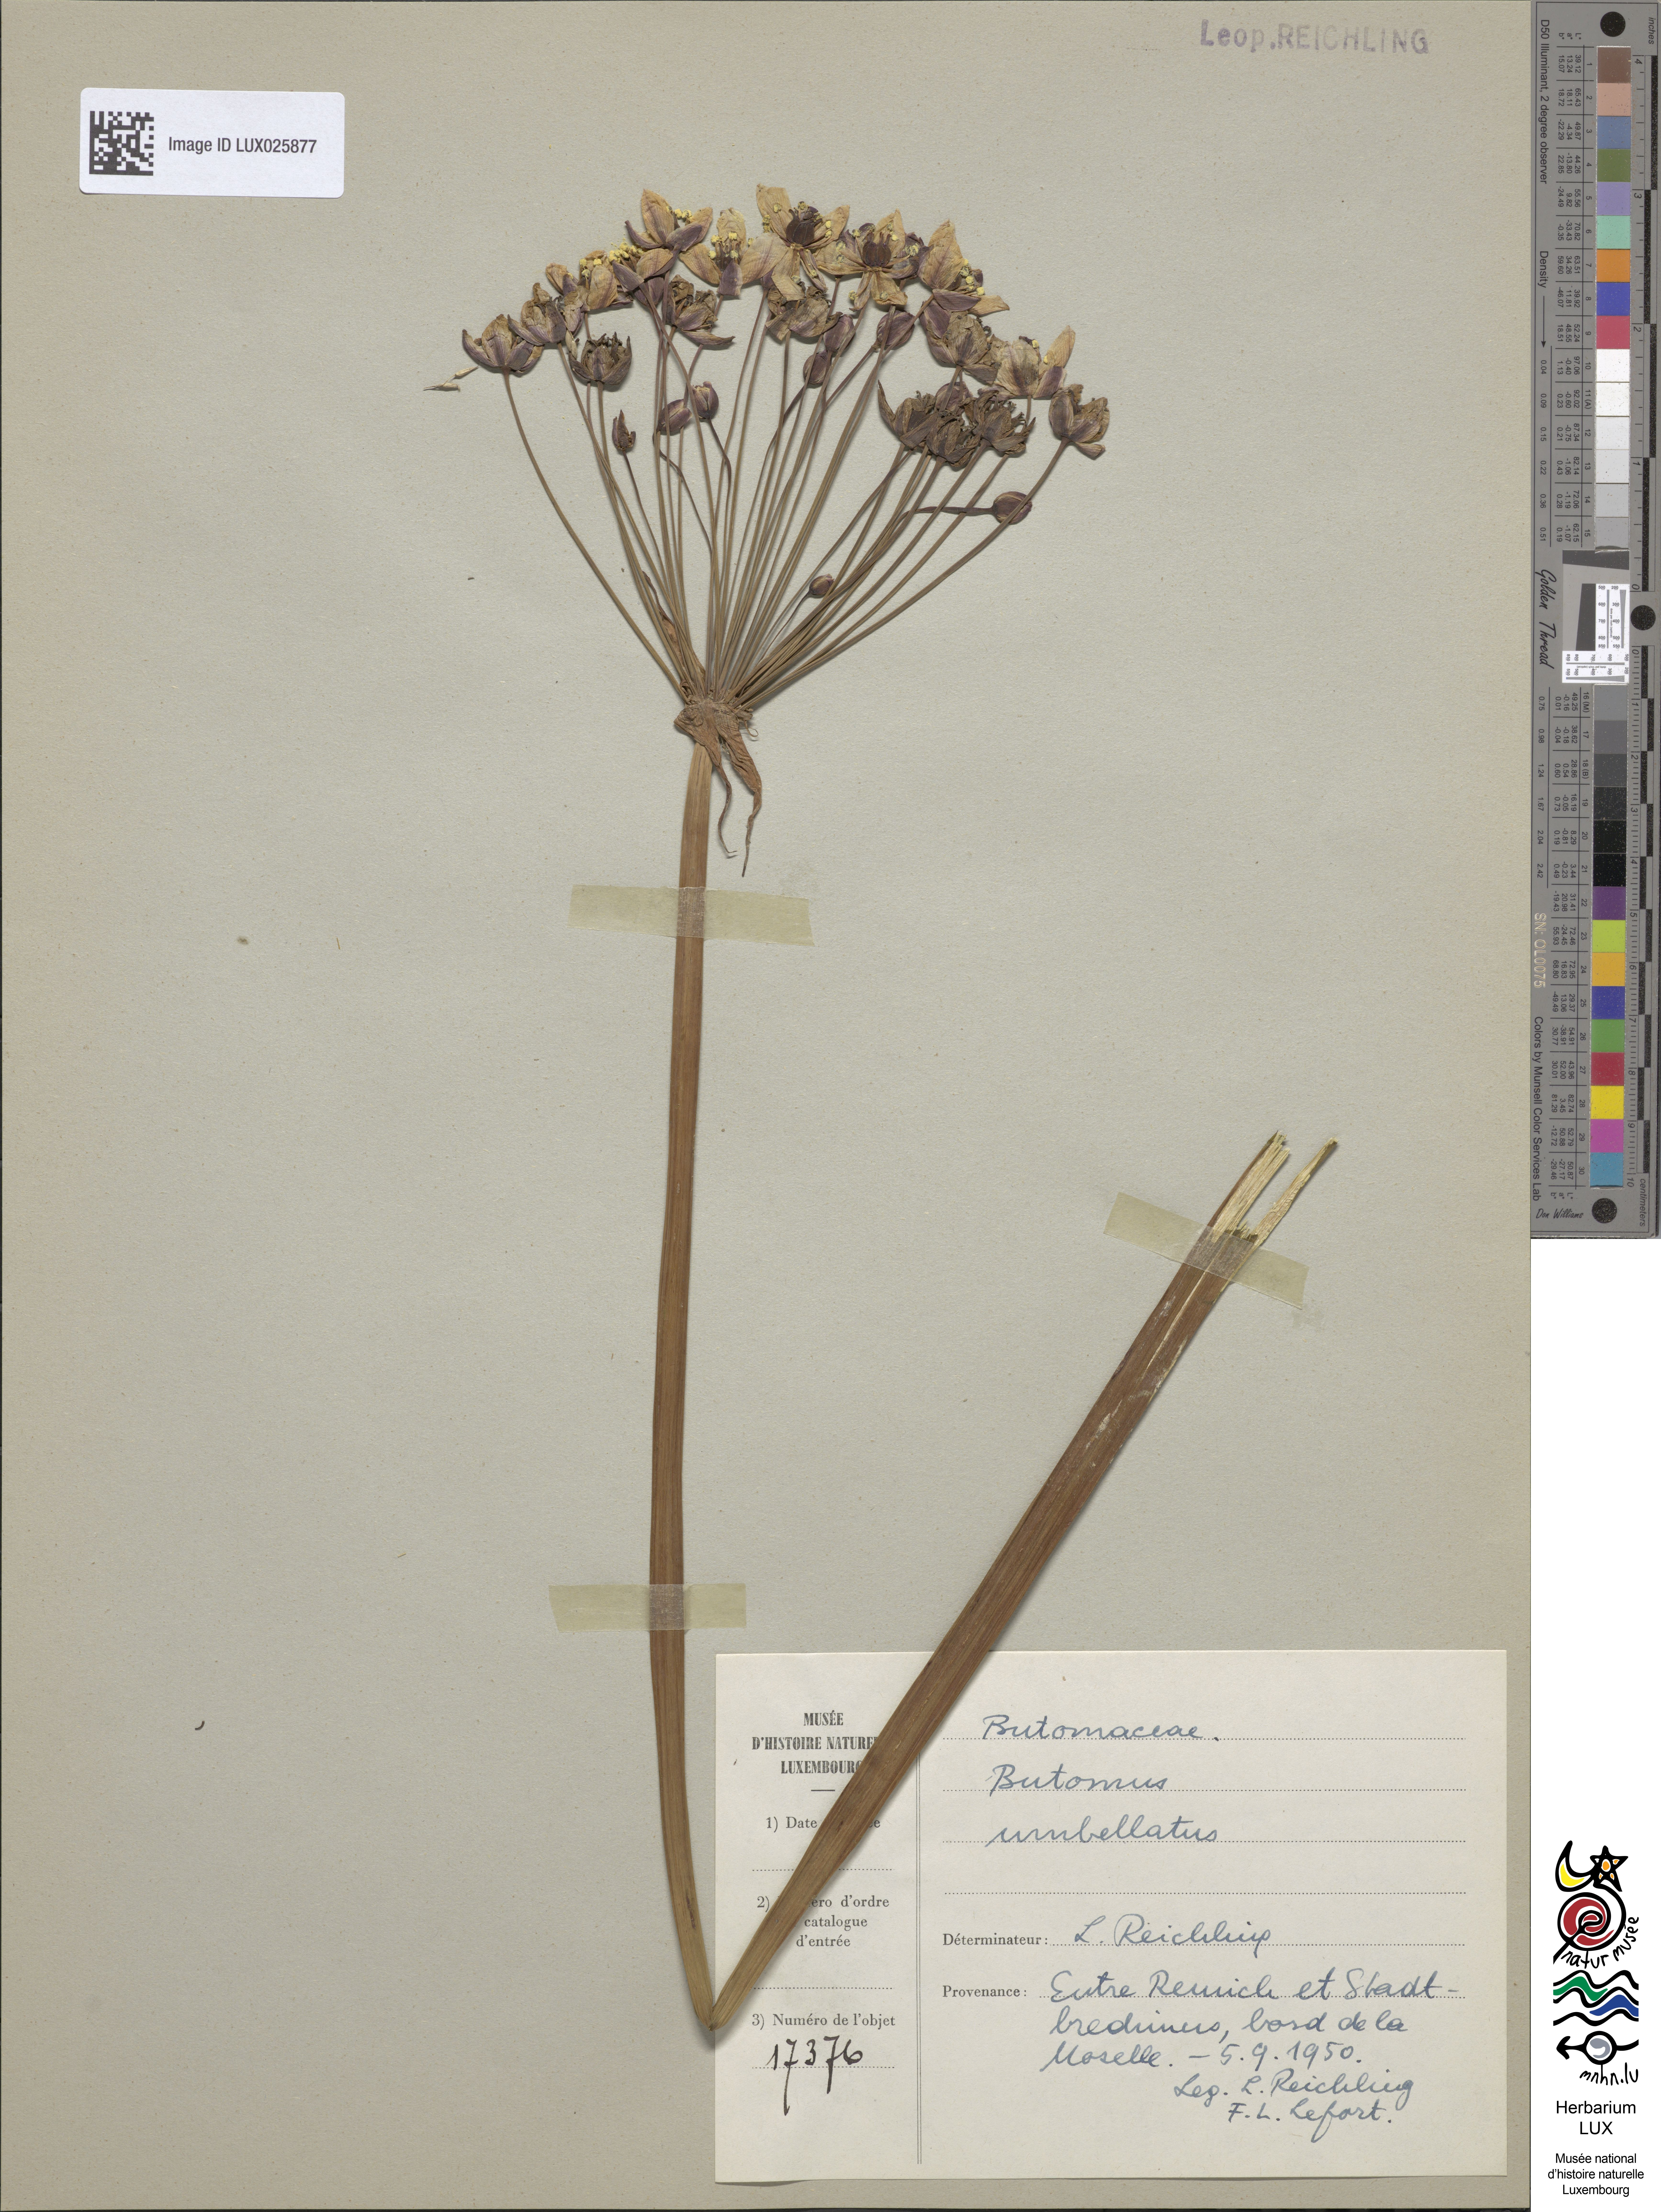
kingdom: Plantae
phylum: Tracheophyta
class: Liliopsida
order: Alismatales
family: Butomaceae
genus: Butomus
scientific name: Butomus umbellatus
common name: Flowering-rush
